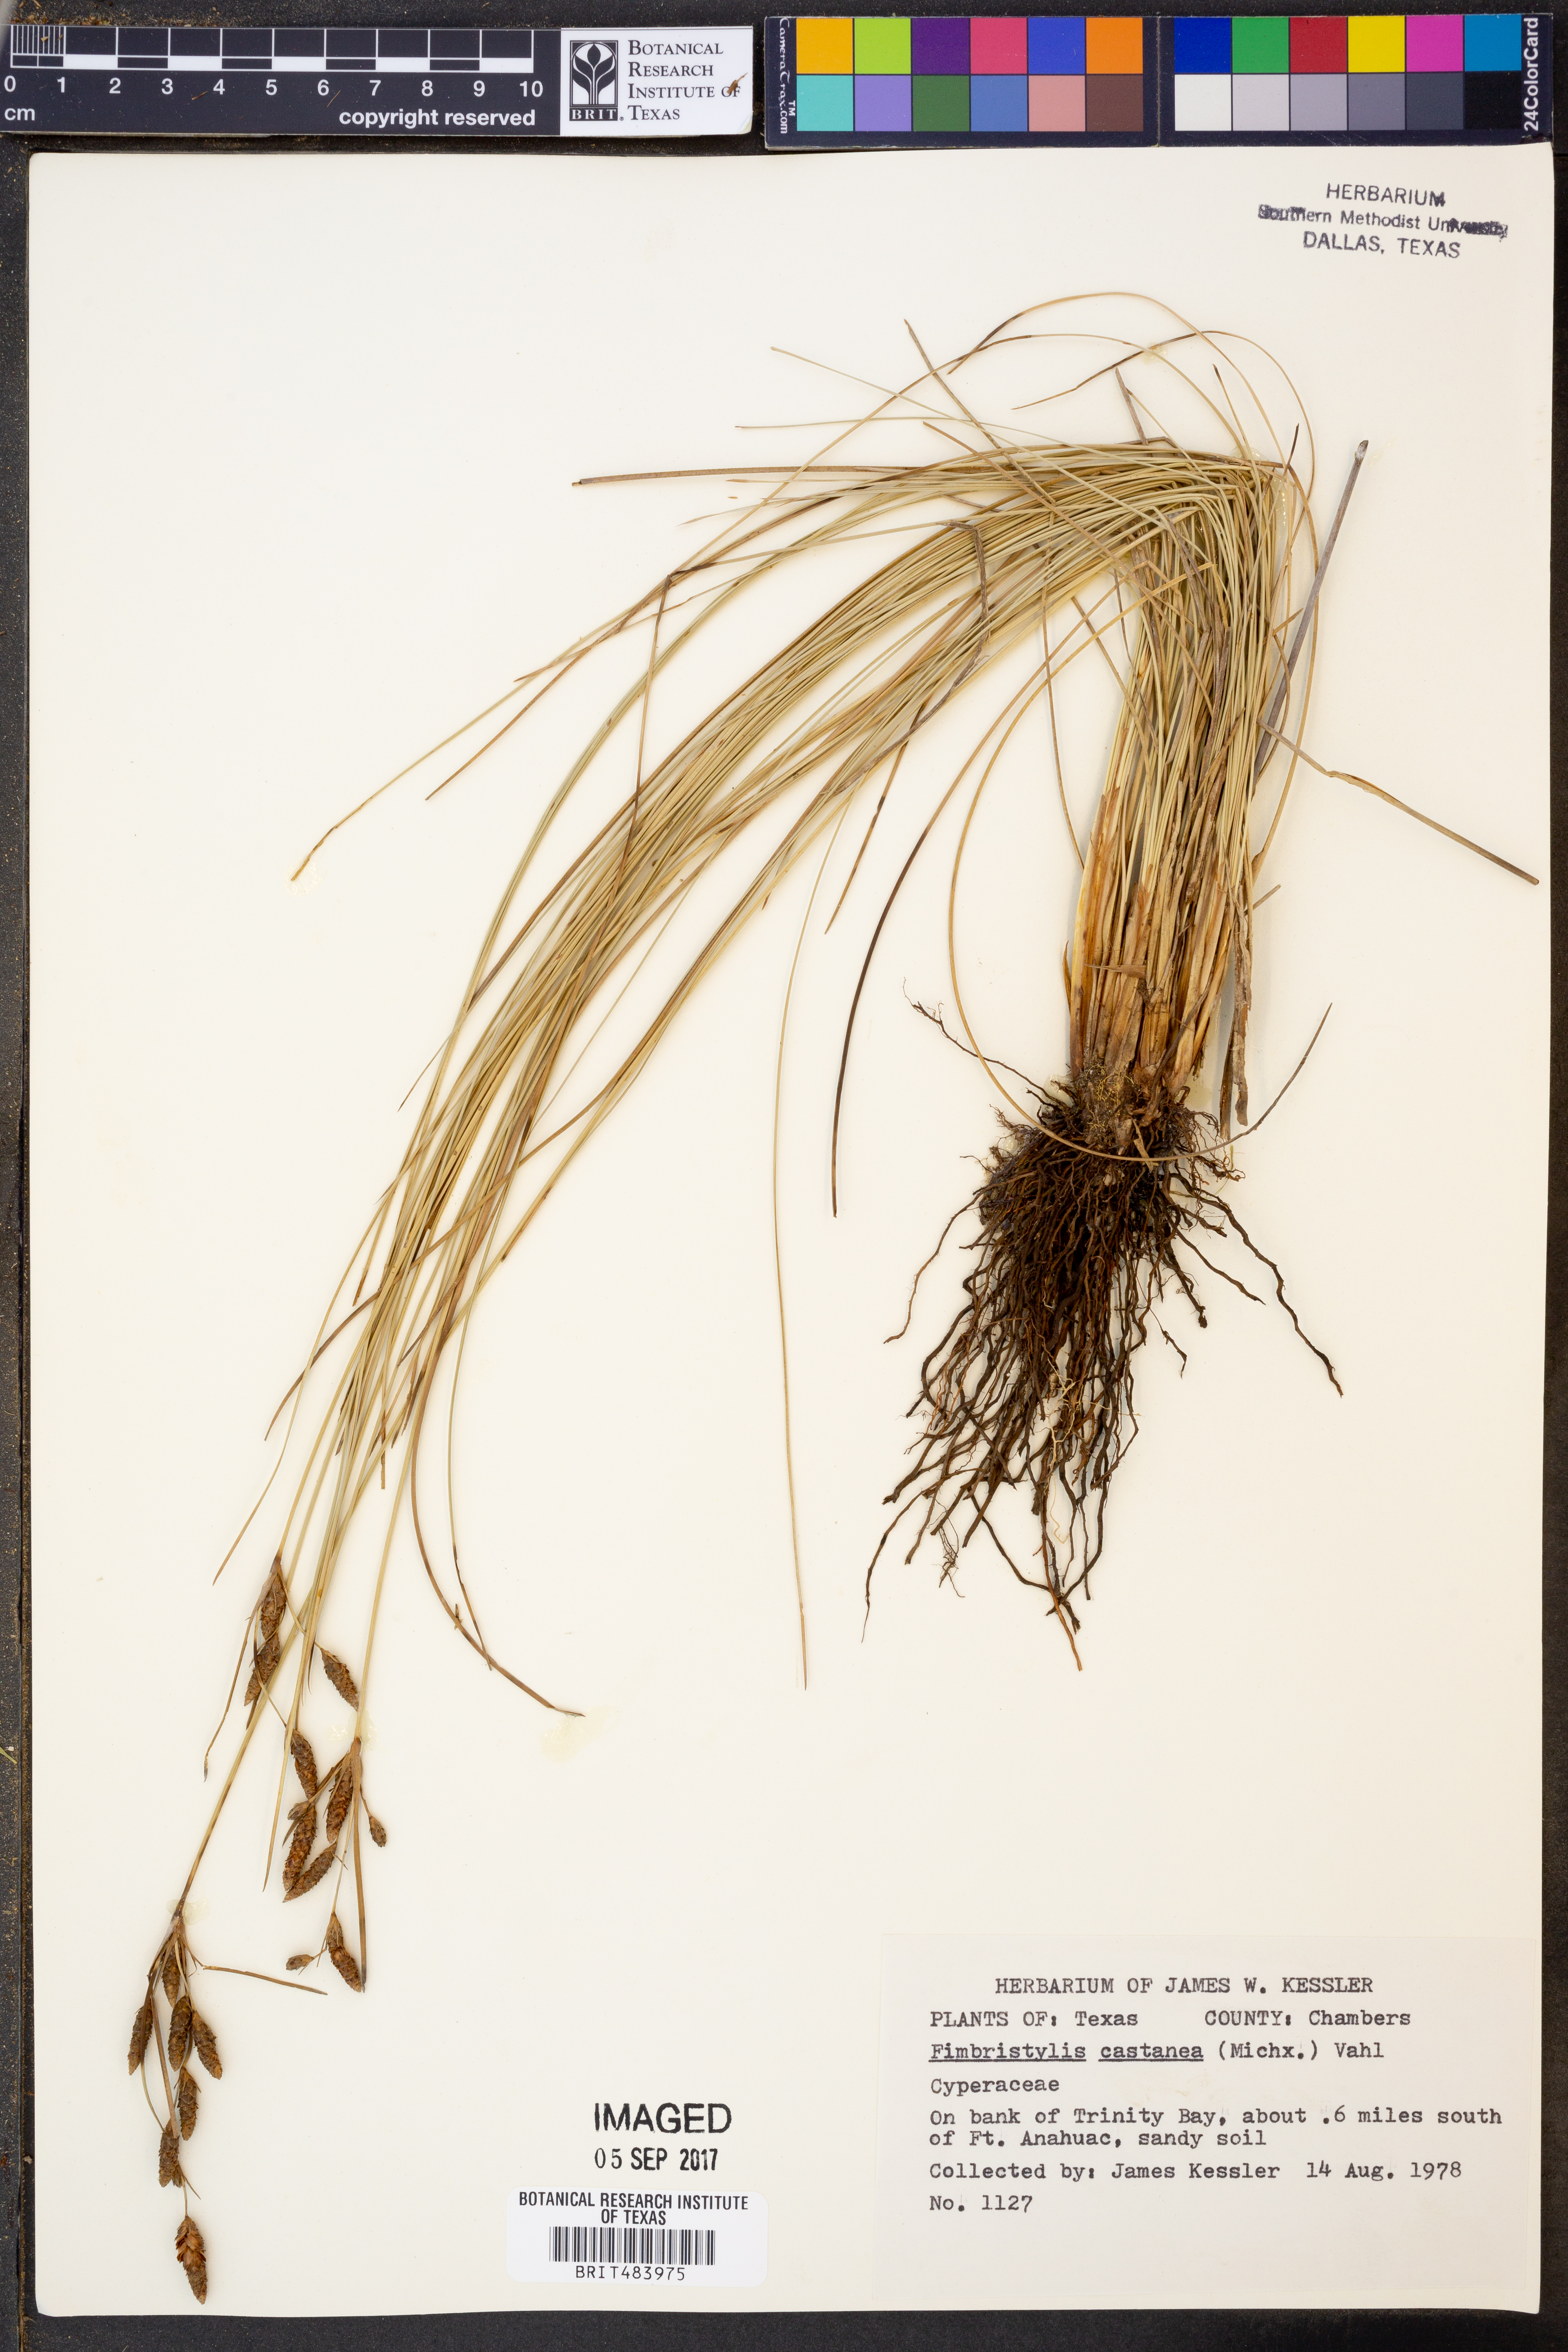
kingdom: Plantae
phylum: Tracheophyta
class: Liliopsida
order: Poales
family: Cyperaceae
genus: Fimbristylis
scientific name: Fimbristylis spadicea
